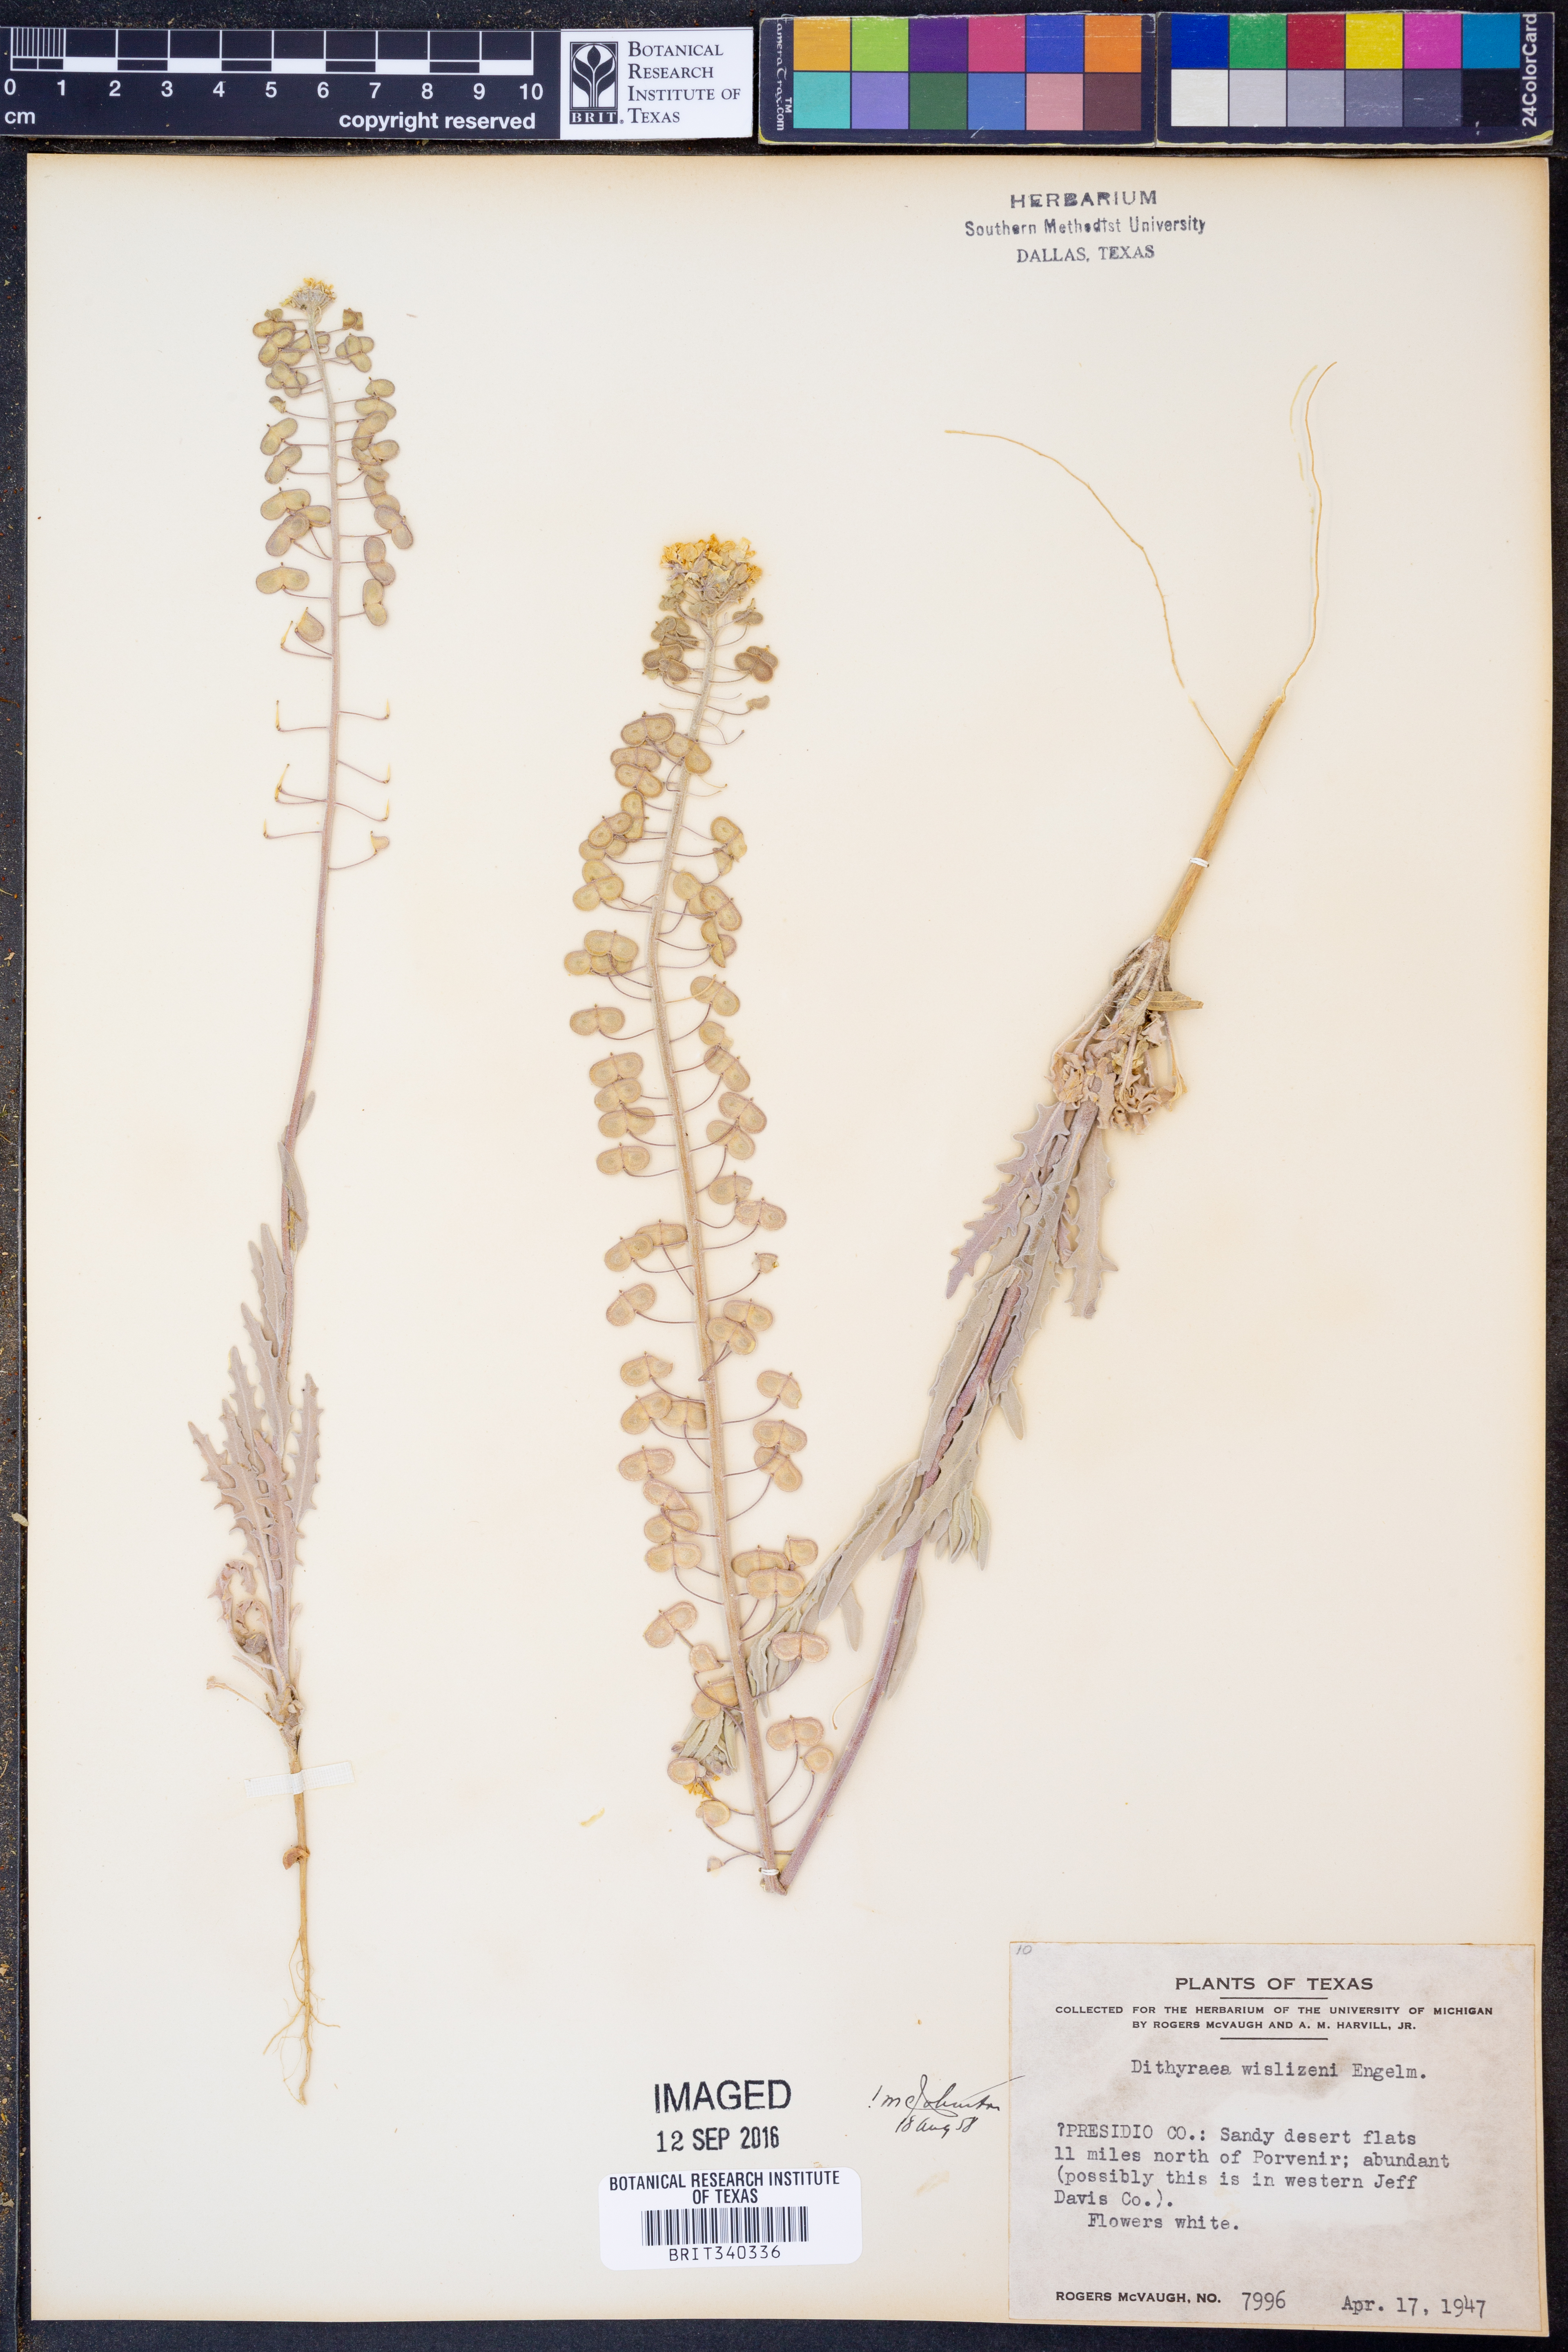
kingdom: Plantae
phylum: Tracheophyta
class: Magnoliopsida
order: Brassicales
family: Brassicaceae
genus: Dimorphocarpa
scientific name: Dimorphocarpa wislizenii
